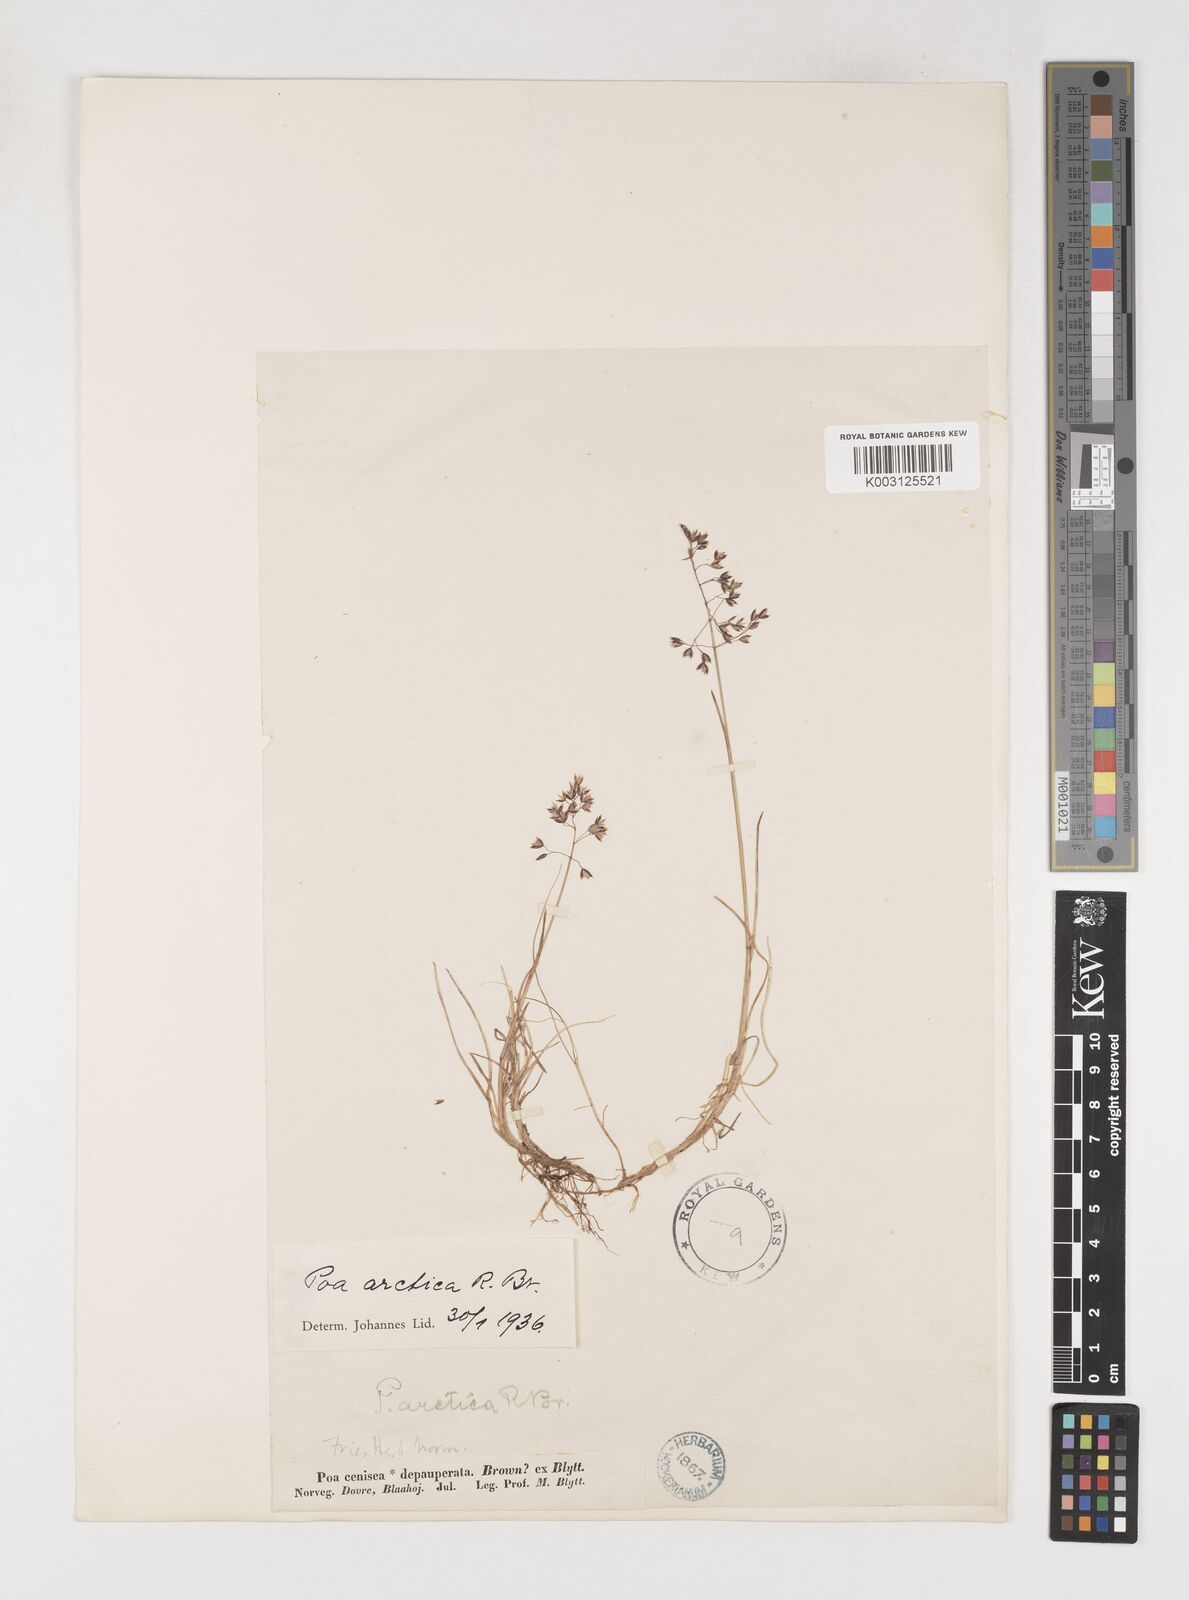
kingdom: Plantae
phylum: Tracheophyta
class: Liliopsida
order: Poales
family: Poaceae
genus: Poa
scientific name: Poa arctica
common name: Arctic bluegrass
